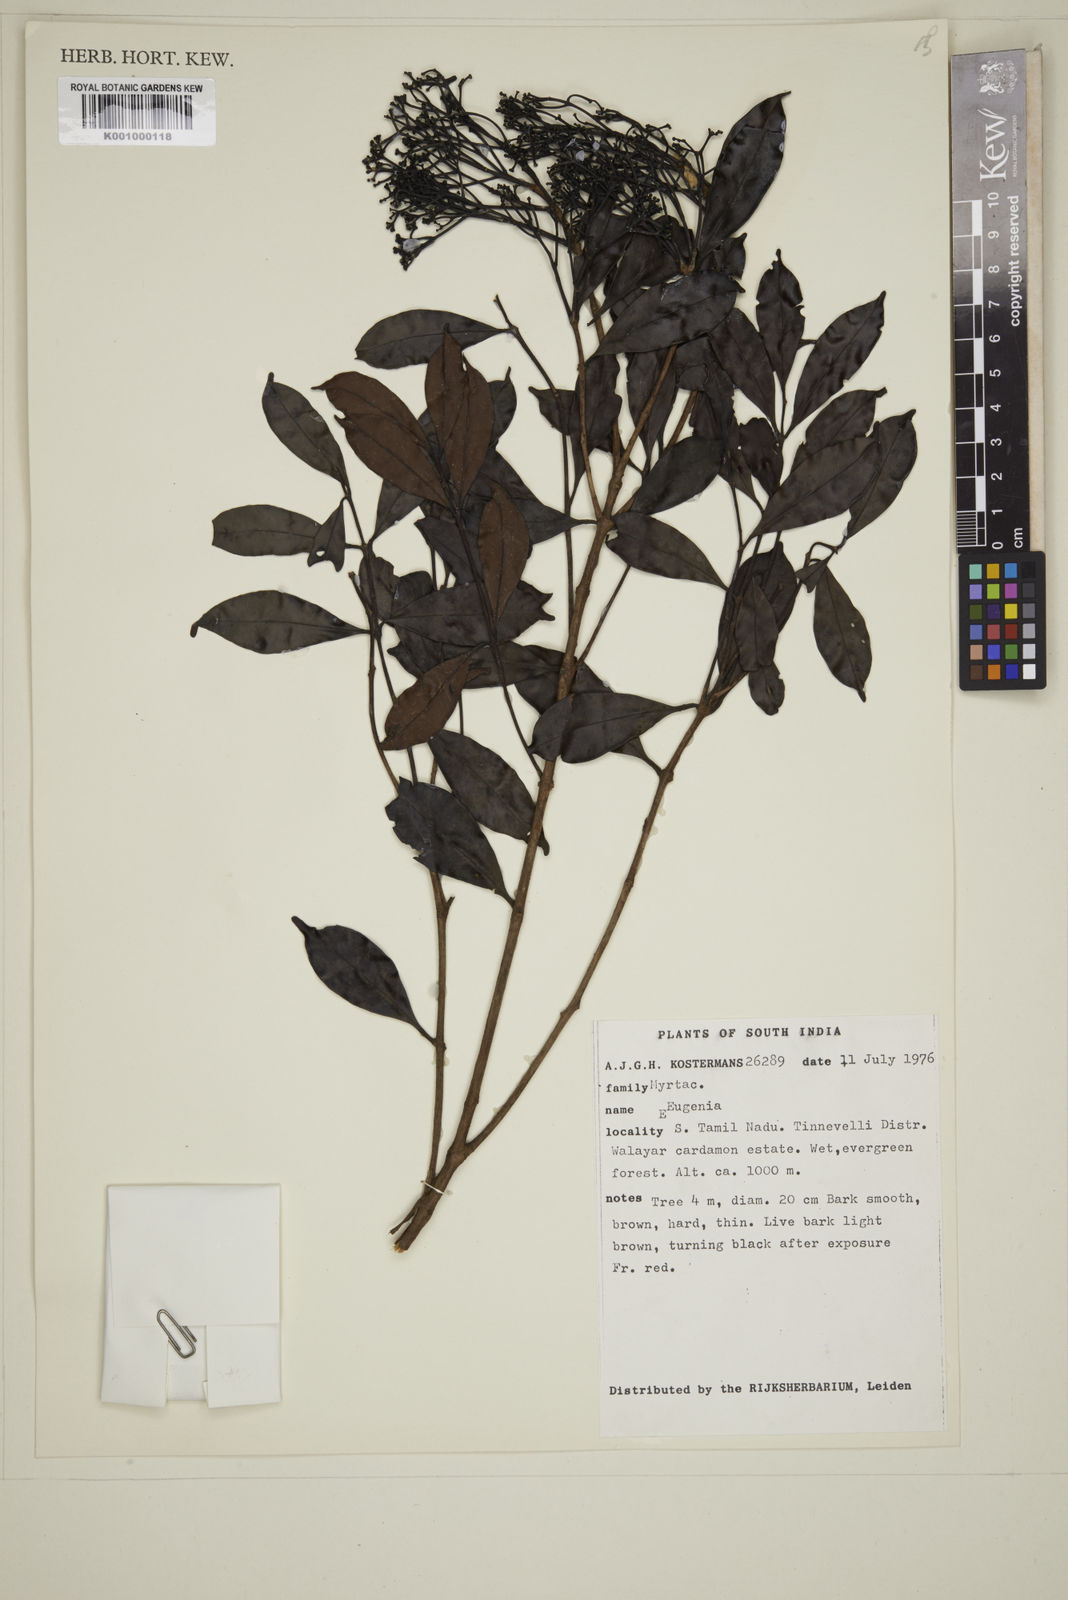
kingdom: Plantae
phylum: Tracheophyta
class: Magnoliopsida
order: Myrtales
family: Myrtaceae
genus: Eugenia
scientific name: Eugenia
